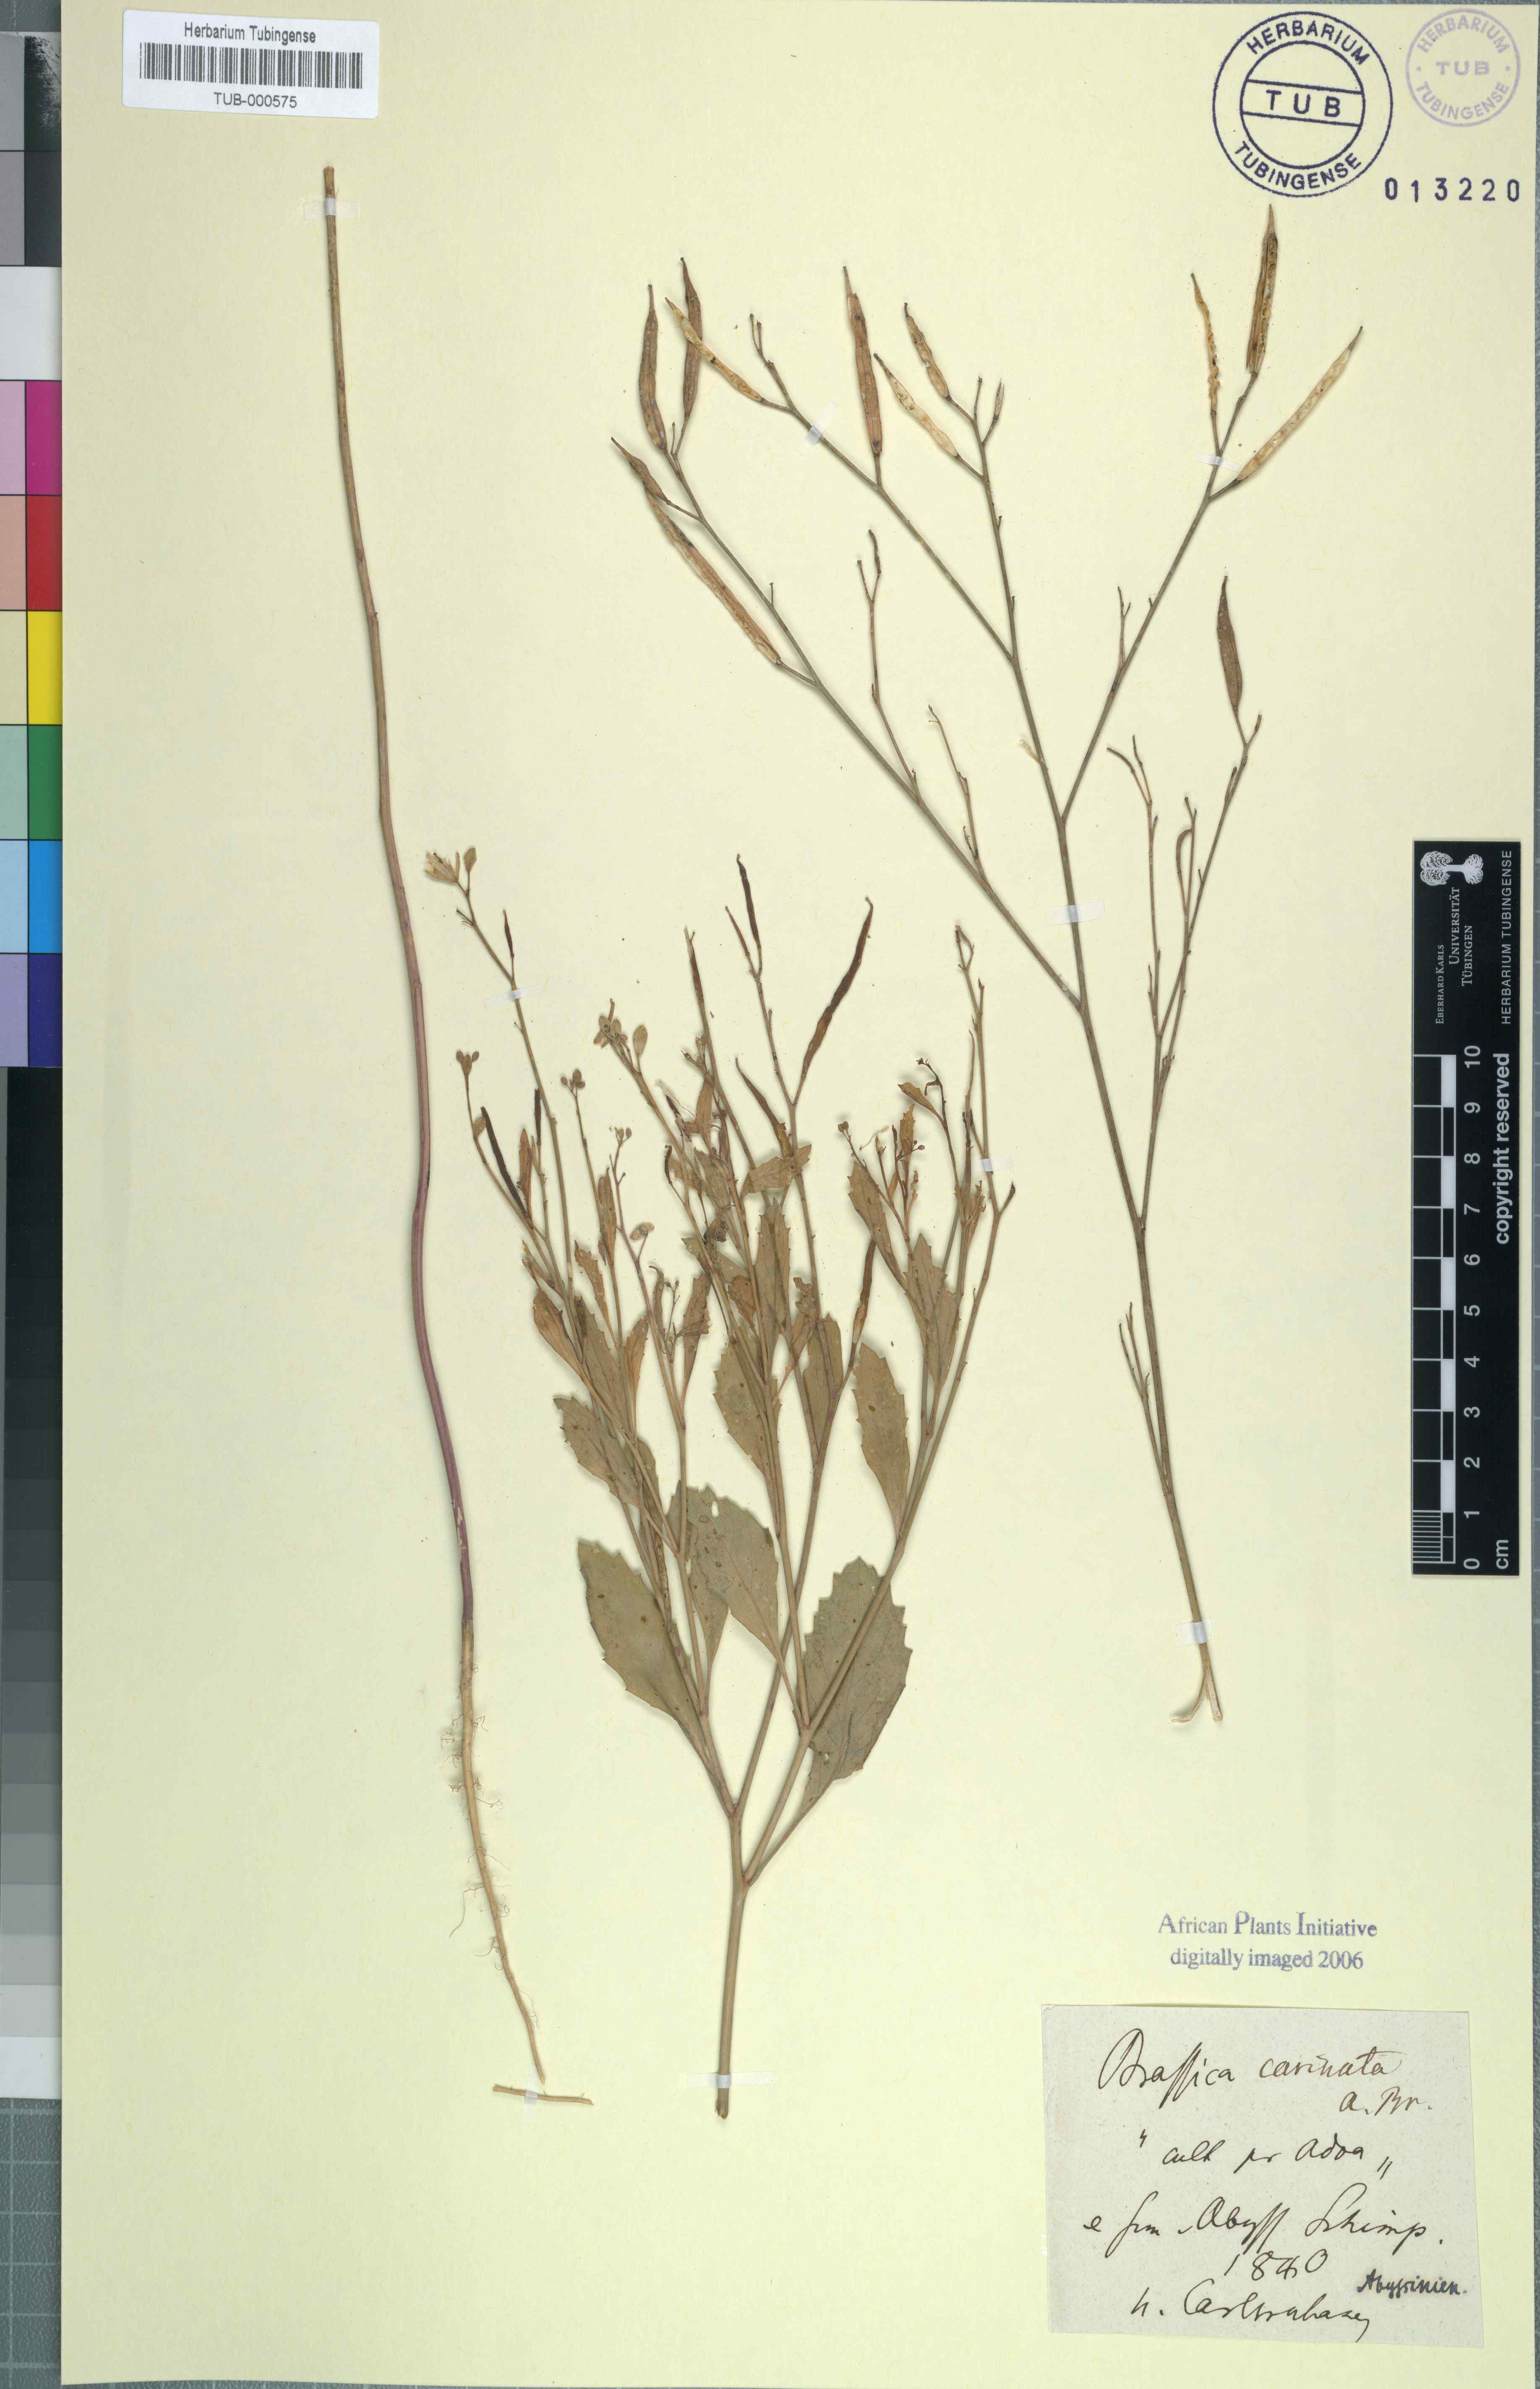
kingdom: Plantae
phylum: Tracheophyta
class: Magnoliopsida
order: Brassicales
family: Brassicaceae
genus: Brassica
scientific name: Brassica carinata
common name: Ethiopian rape
